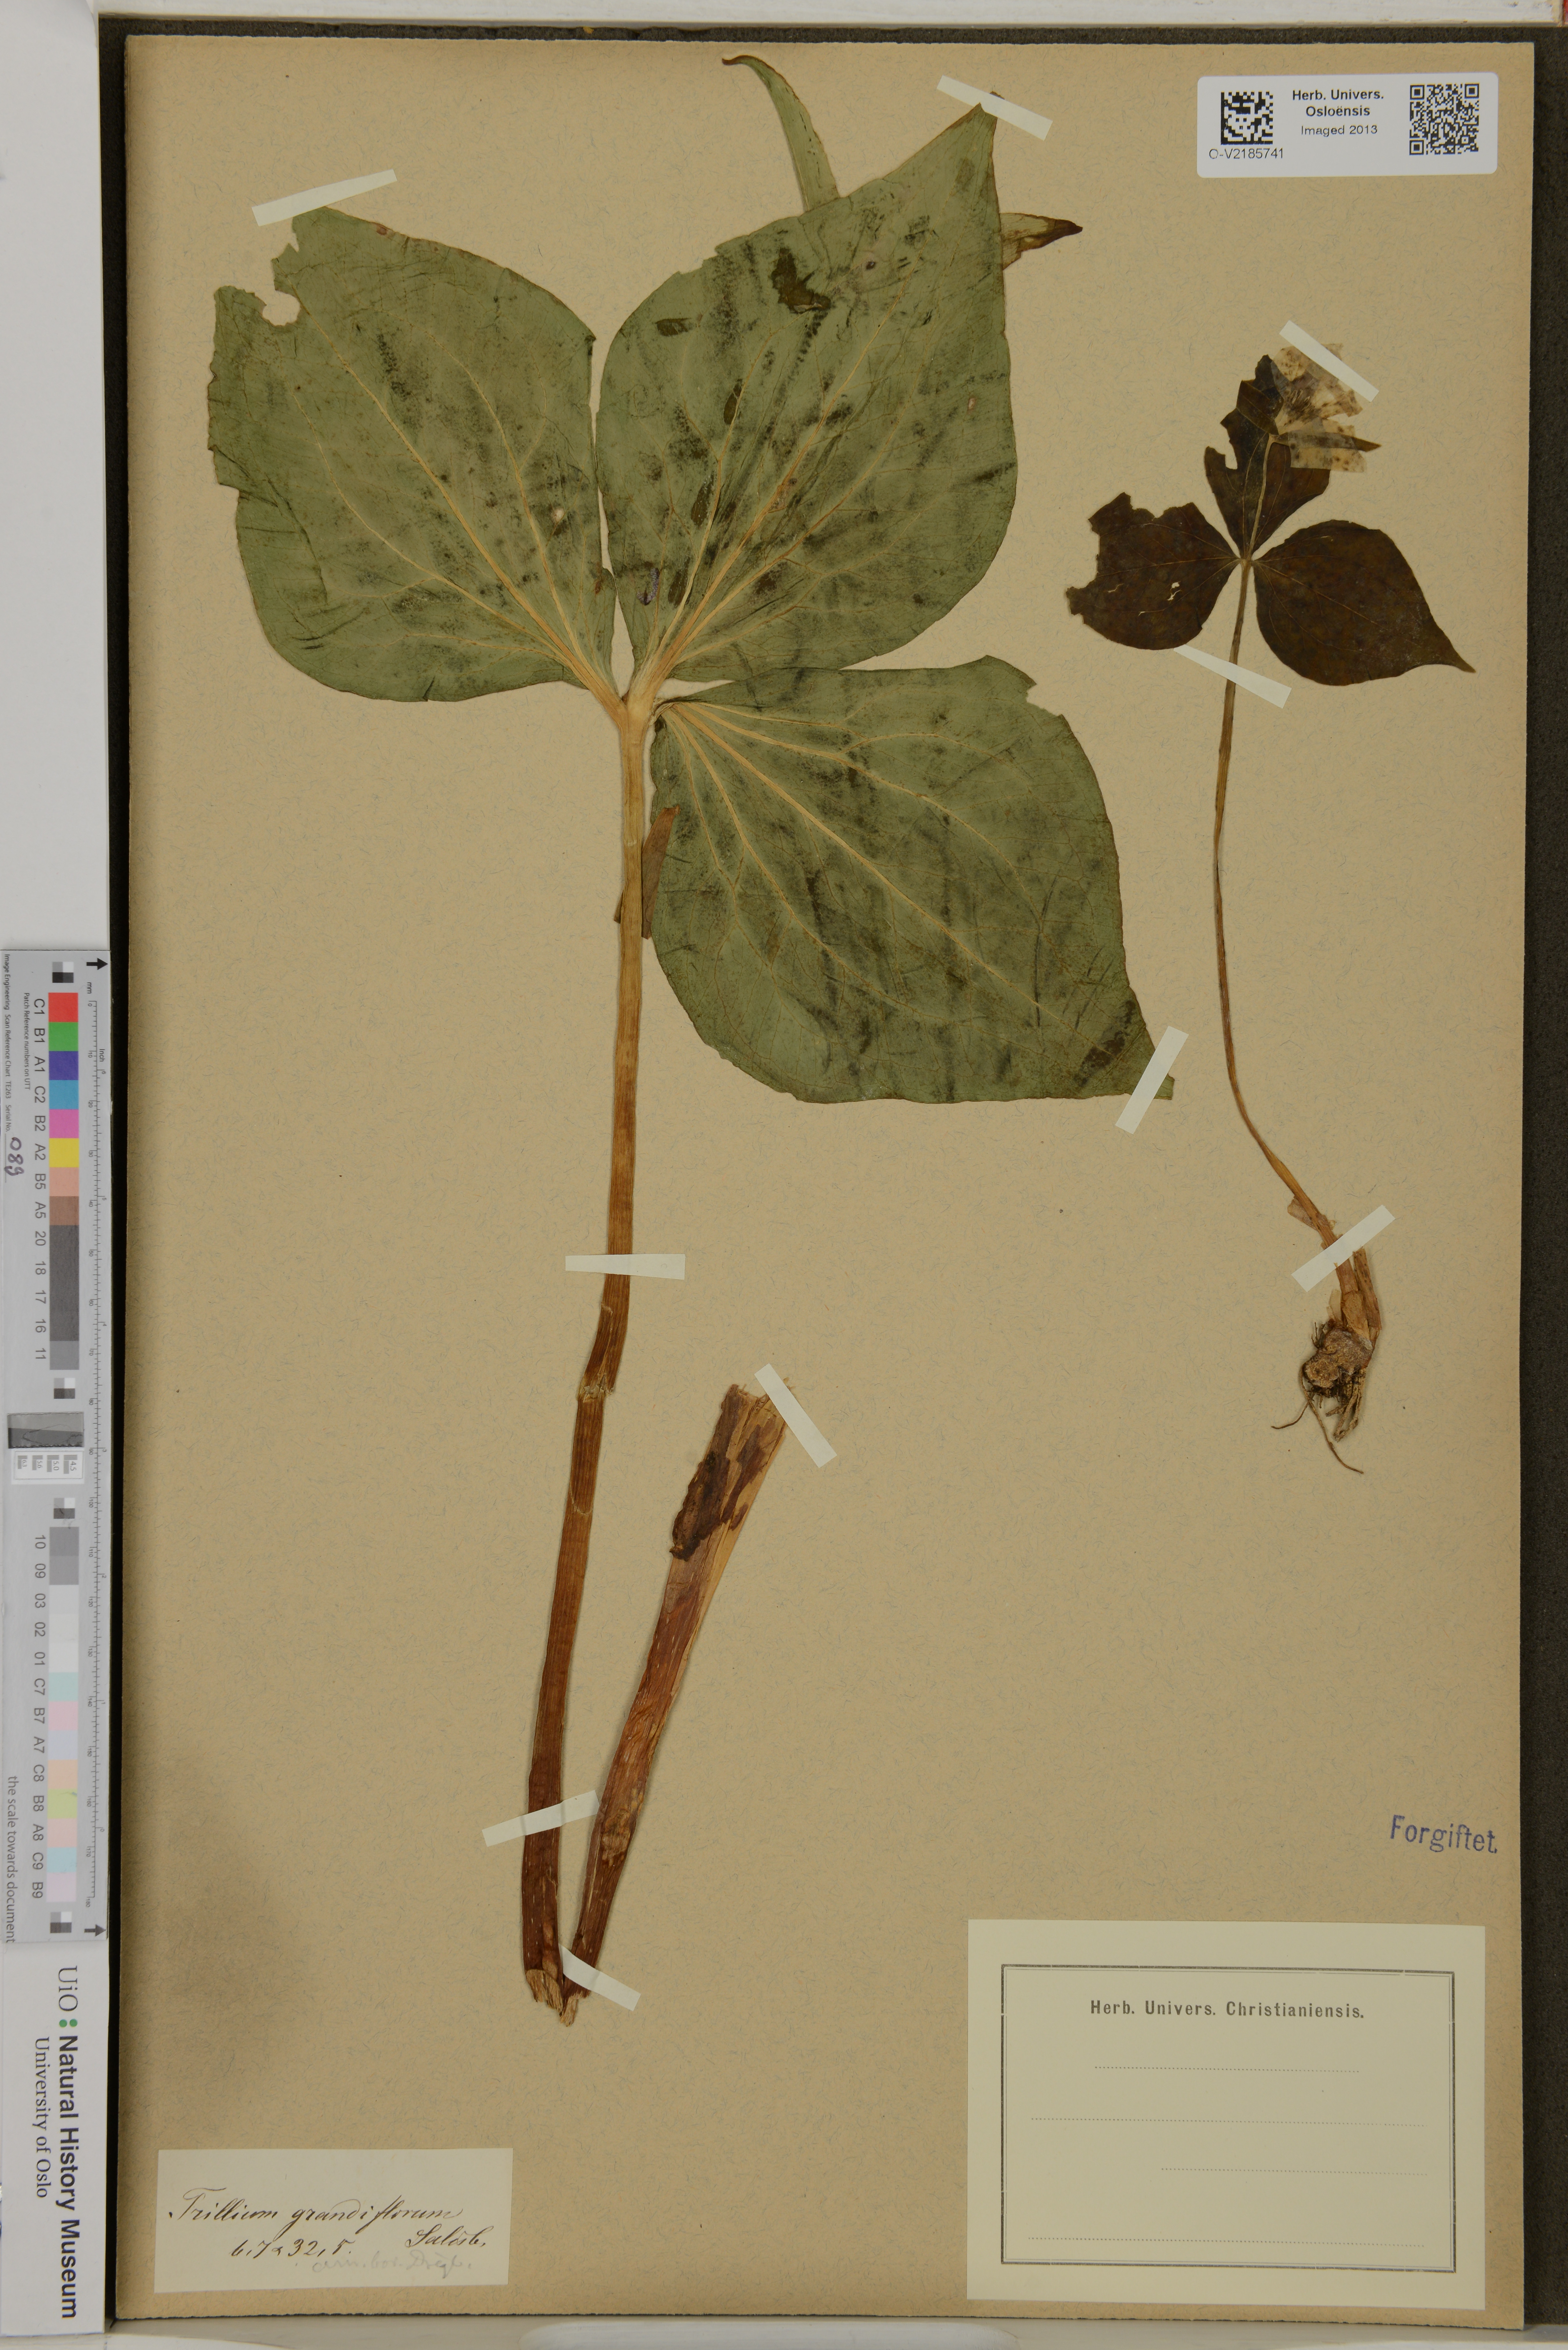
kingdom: Plantae
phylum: Tracheophyta
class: Liliopsida
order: Liliales
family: Melanthiaceae
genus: Trillium
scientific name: Trillium grandiflorum
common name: Great white trillium
